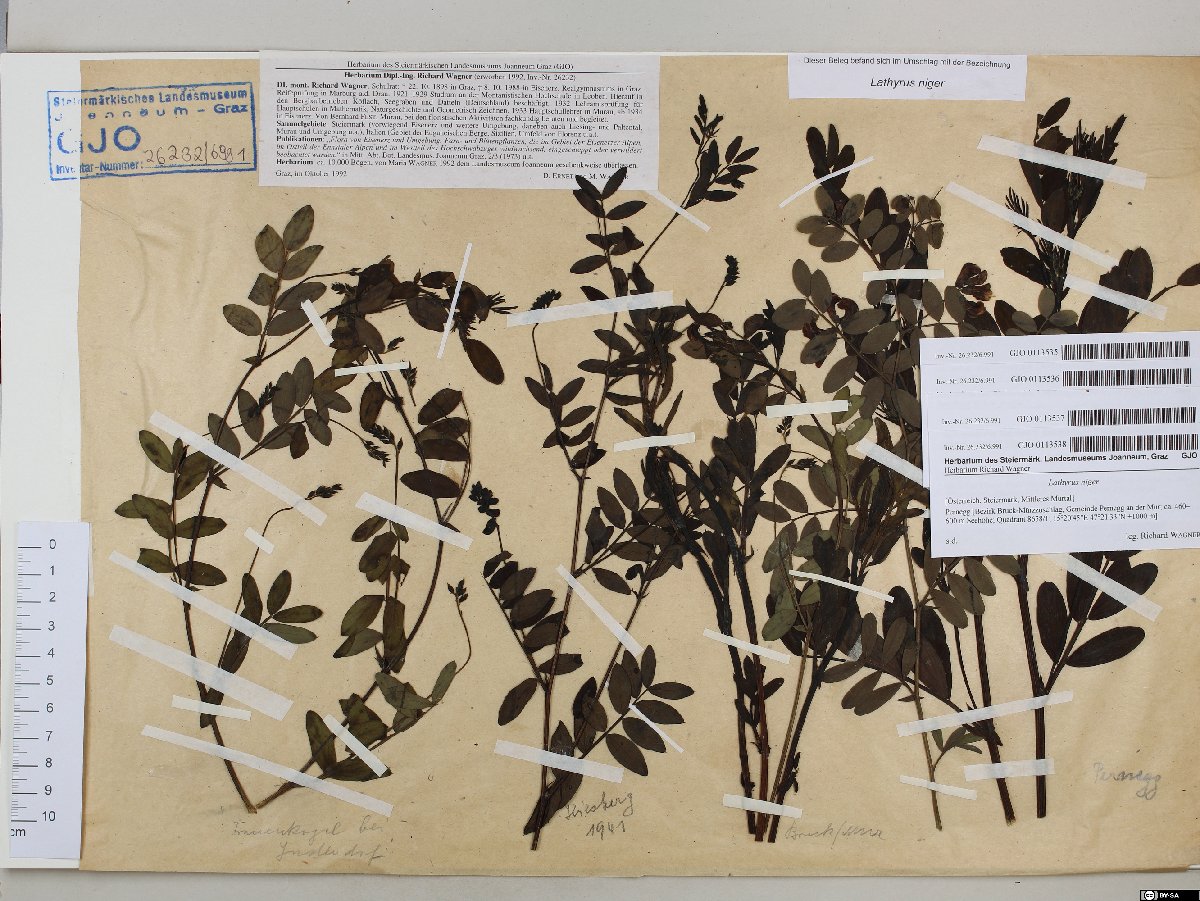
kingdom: Plantae
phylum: Tracheophyta
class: Magnoliopsida
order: Fabales
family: Fabaceae
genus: Lathyrus
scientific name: Lathyrus niger
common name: Black pea
